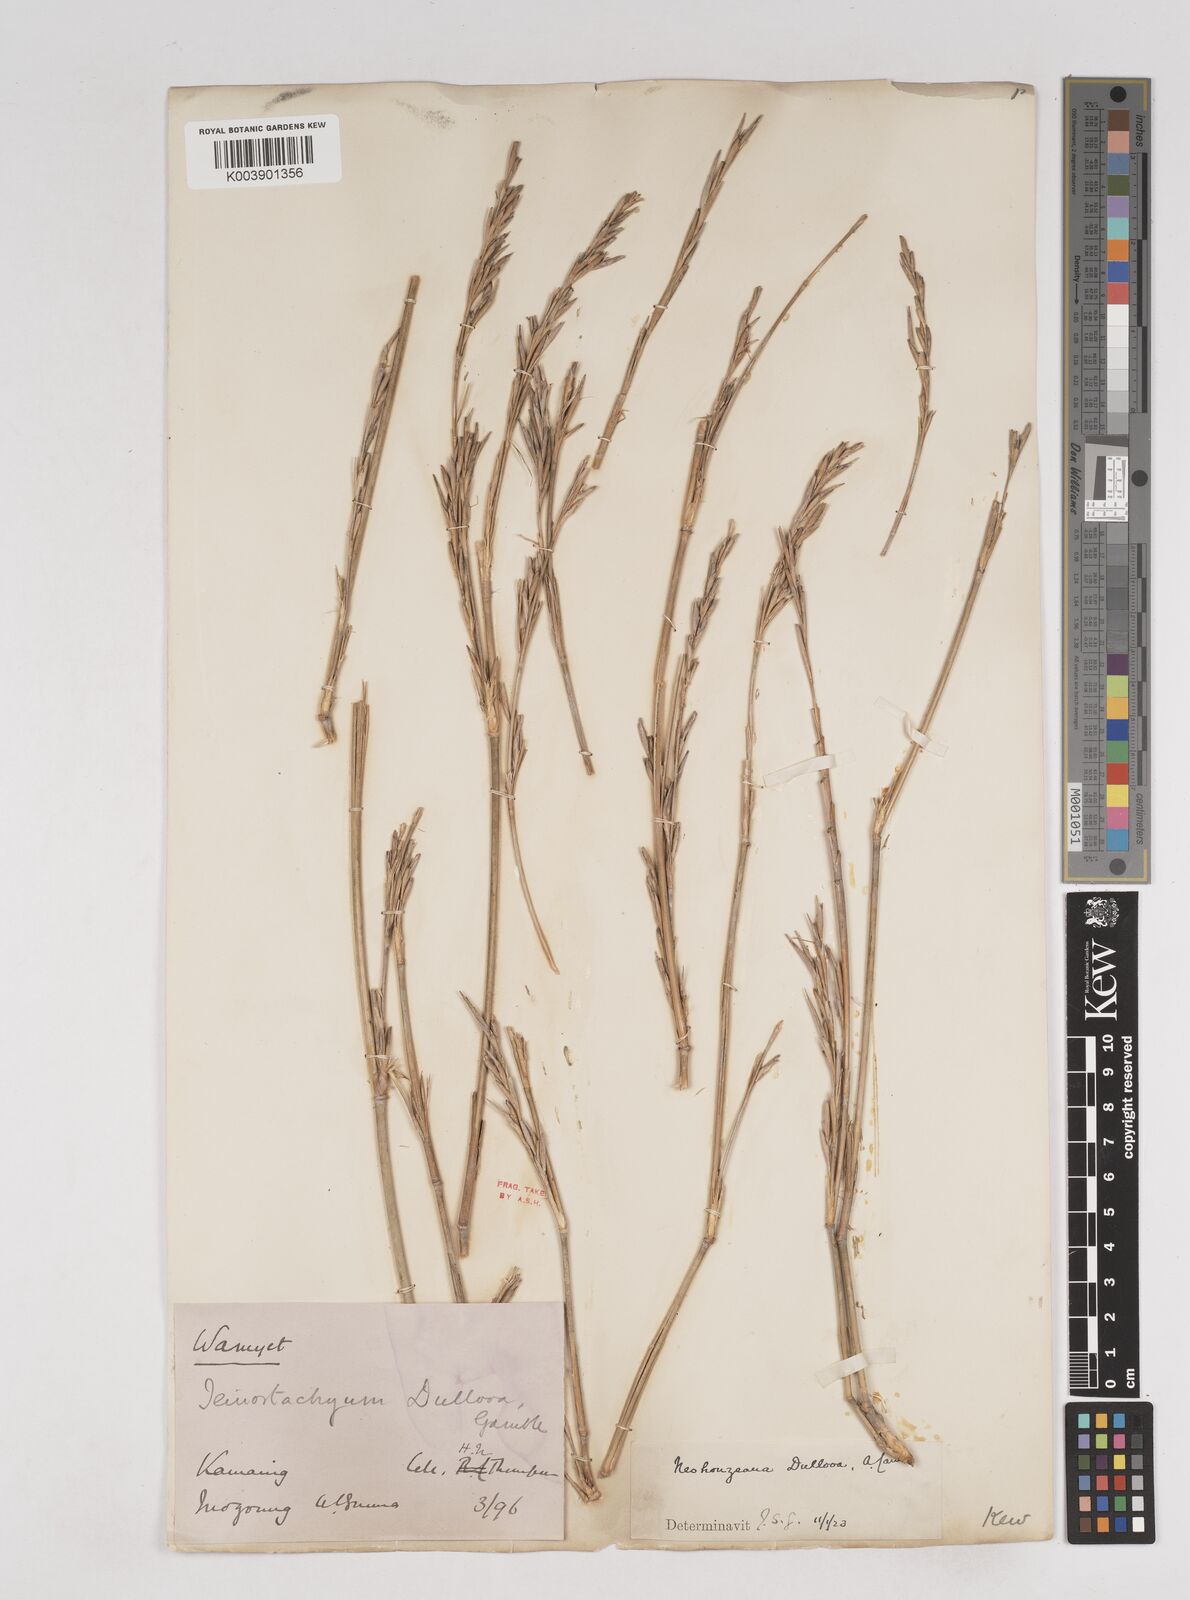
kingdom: Plantae
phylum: Tracheophyta
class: Liliopsida
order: Poales
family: Poaceae
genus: Schizostachyum
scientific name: Schizostachyum dullooa
